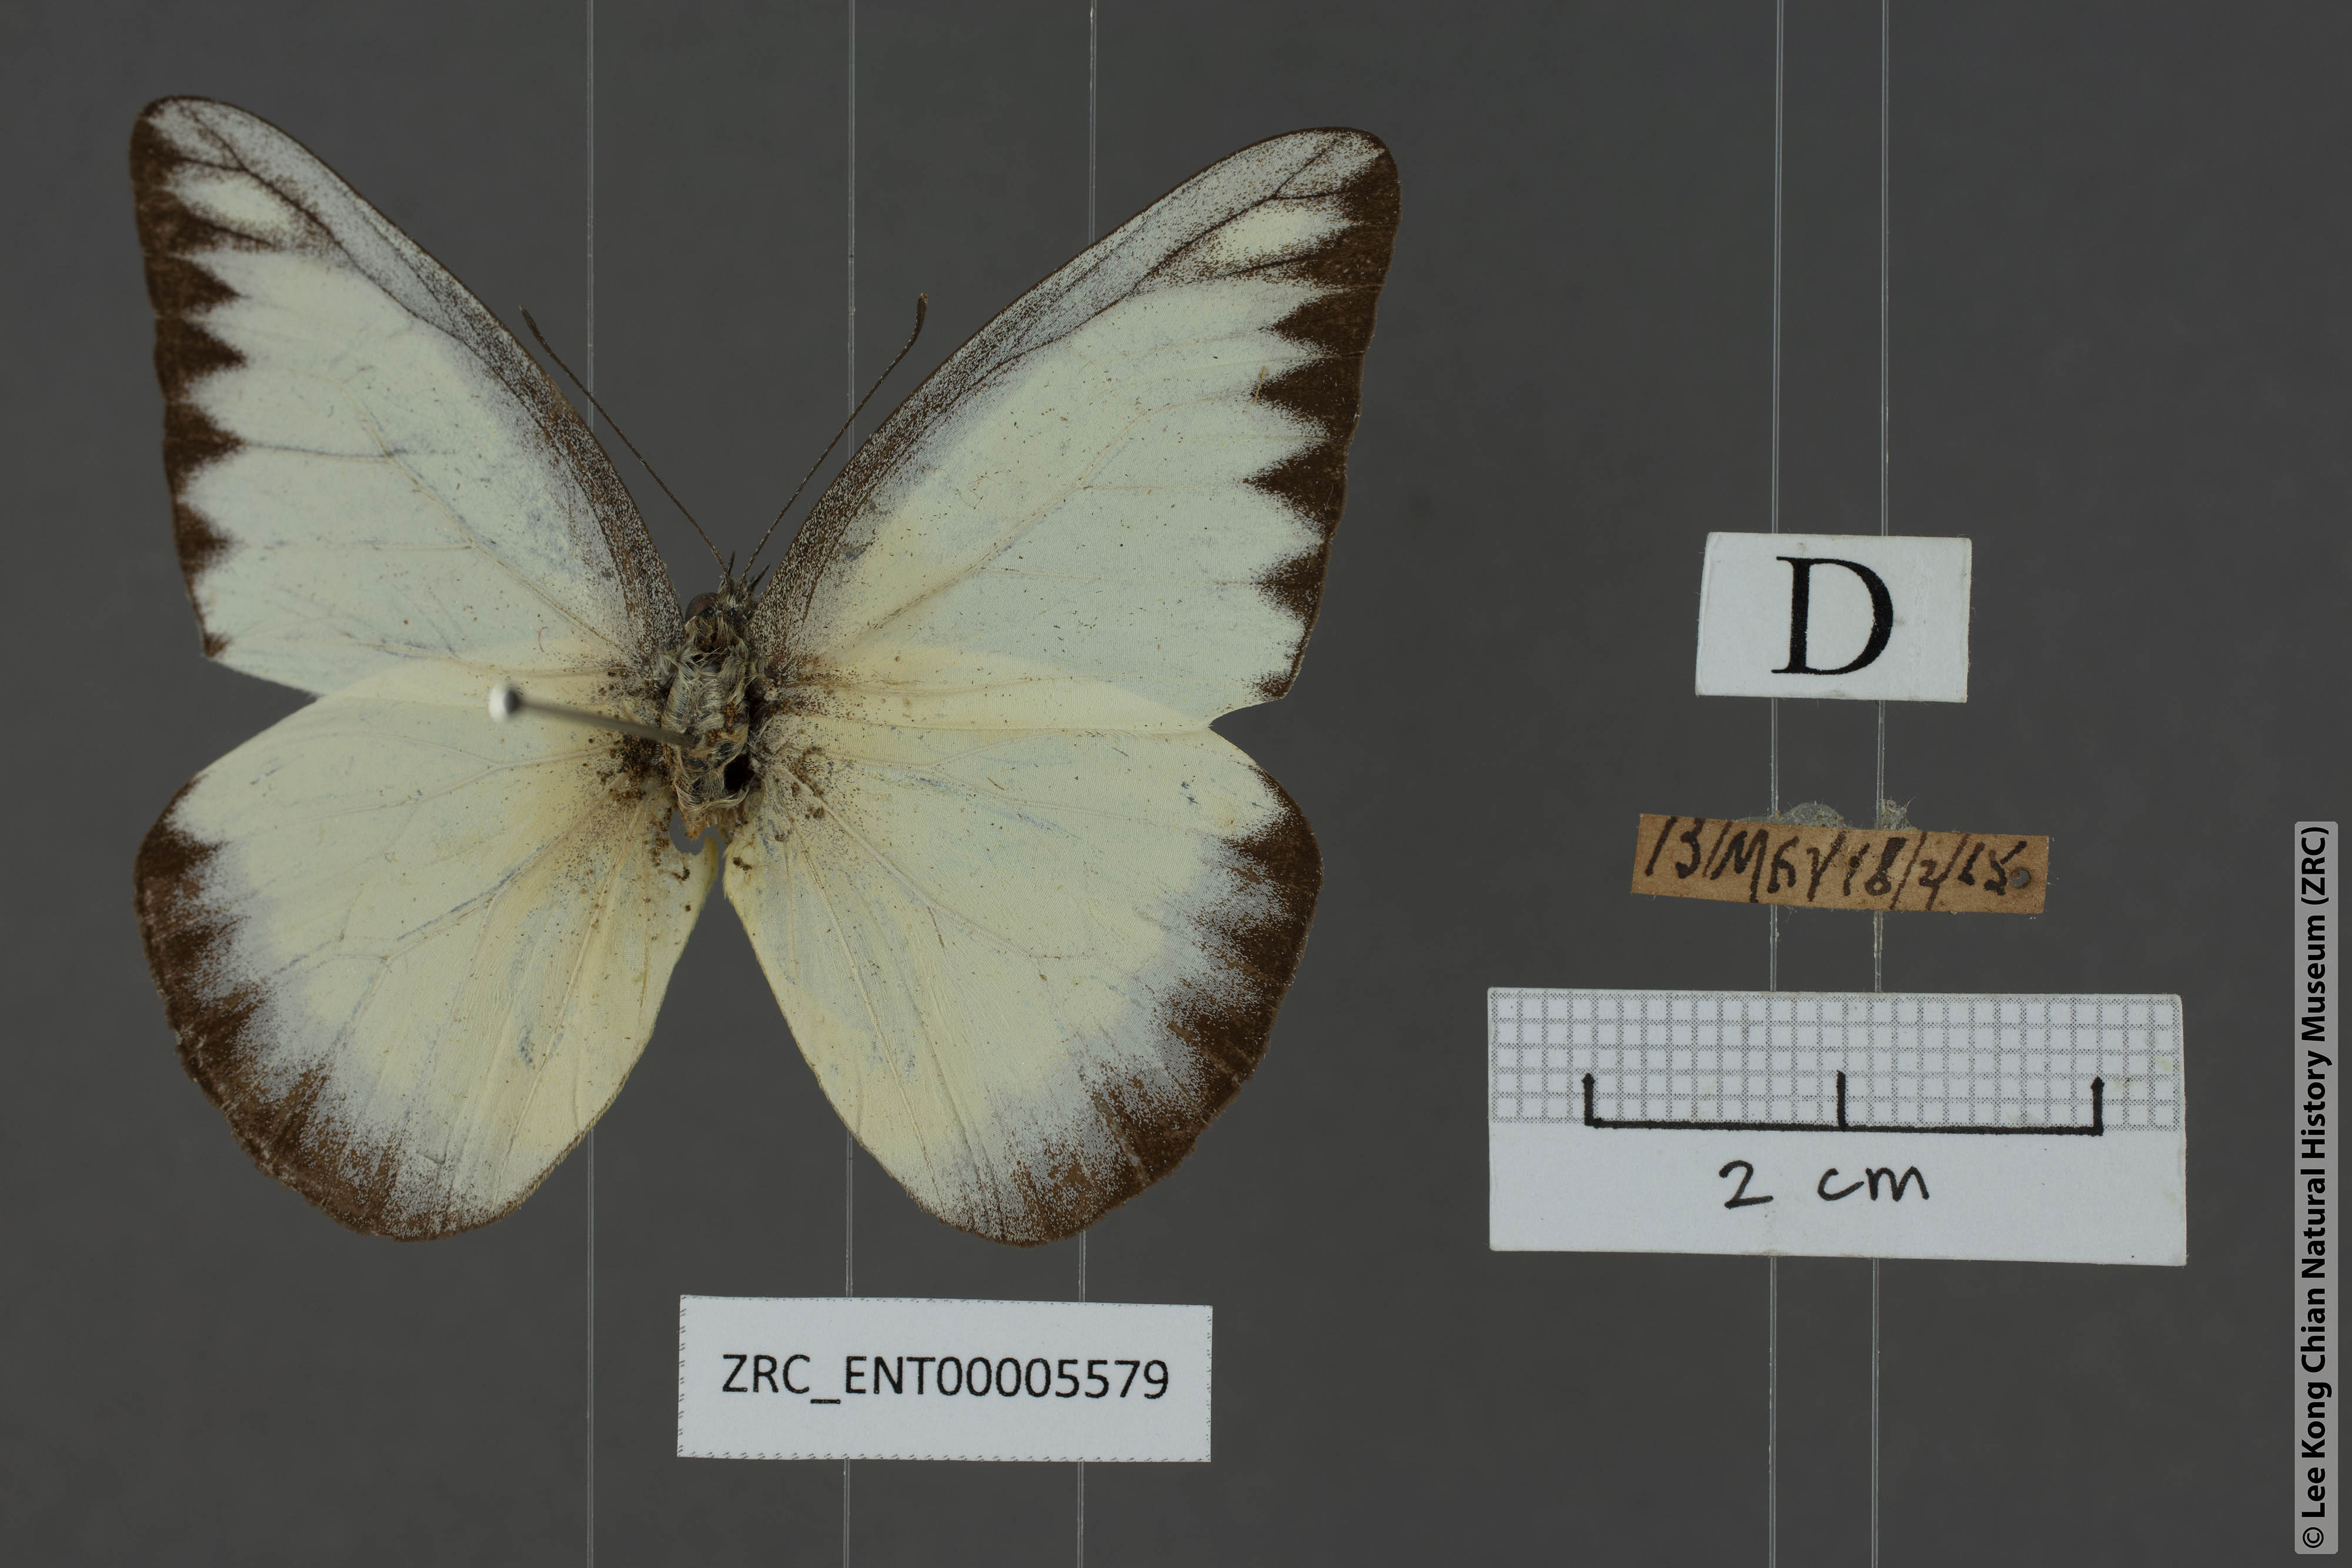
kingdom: Animalia
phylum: Arthropoda
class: Insecta
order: Lepidoptera
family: Pieridae
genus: Appias
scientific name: Appias lyncida
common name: Chocolate albatross
